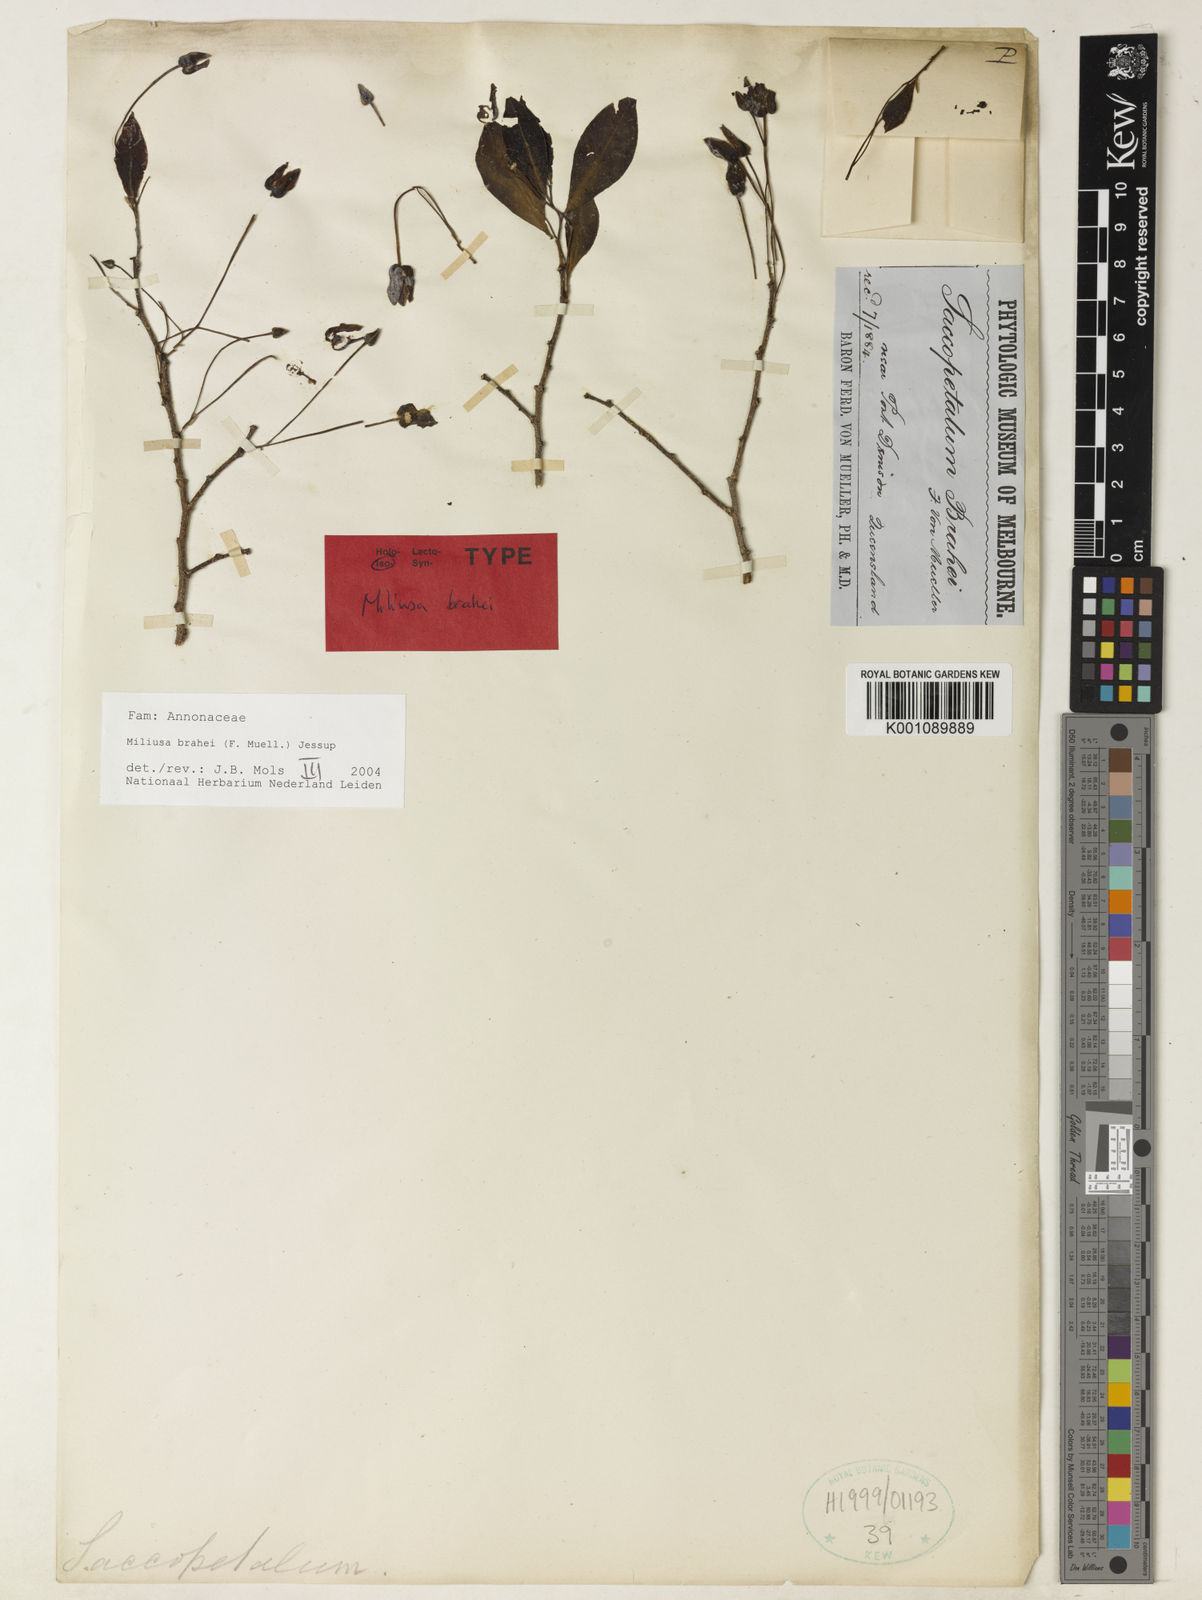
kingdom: Plantae
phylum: Tracheophyta
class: Magnoliopsida
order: Magnoliales
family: Annonaceae
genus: Miliusa
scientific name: Miliusa brahei
